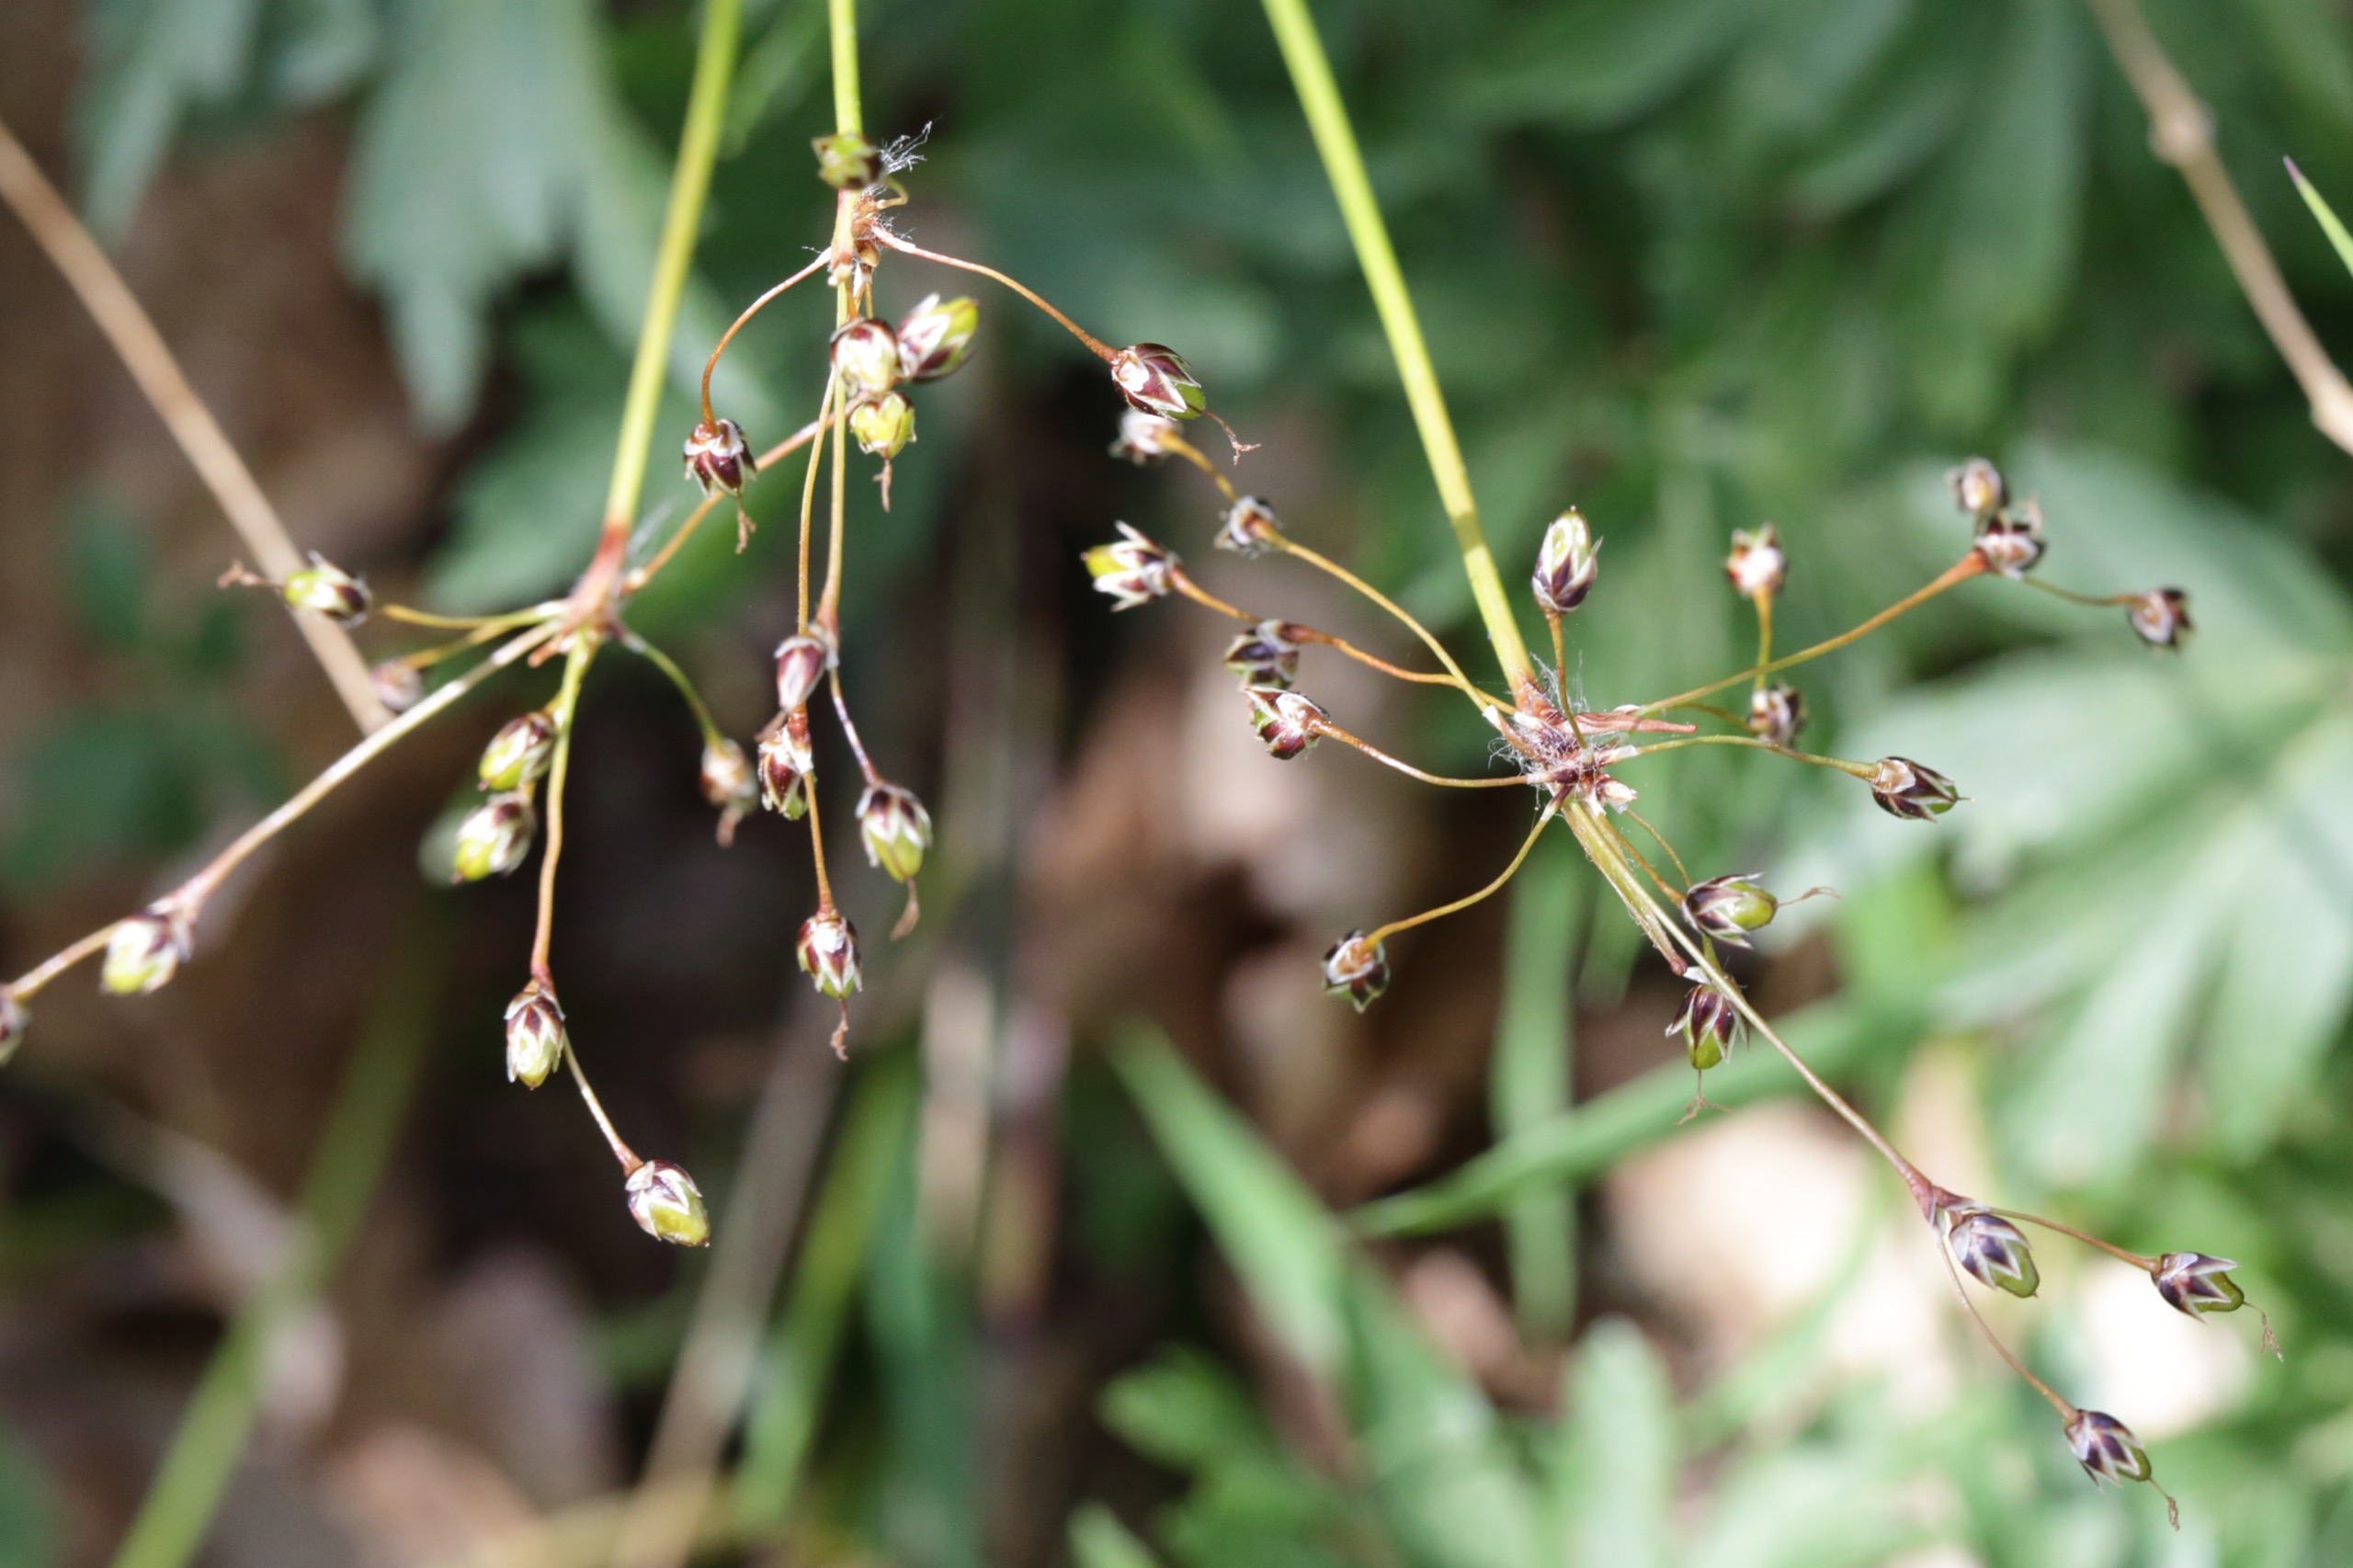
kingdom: Plantae
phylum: Tracheophyta
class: Liliopsida
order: Poales
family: Juncaceae
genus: Luzula
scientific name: Luzula pilosa
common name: Håret frytle
